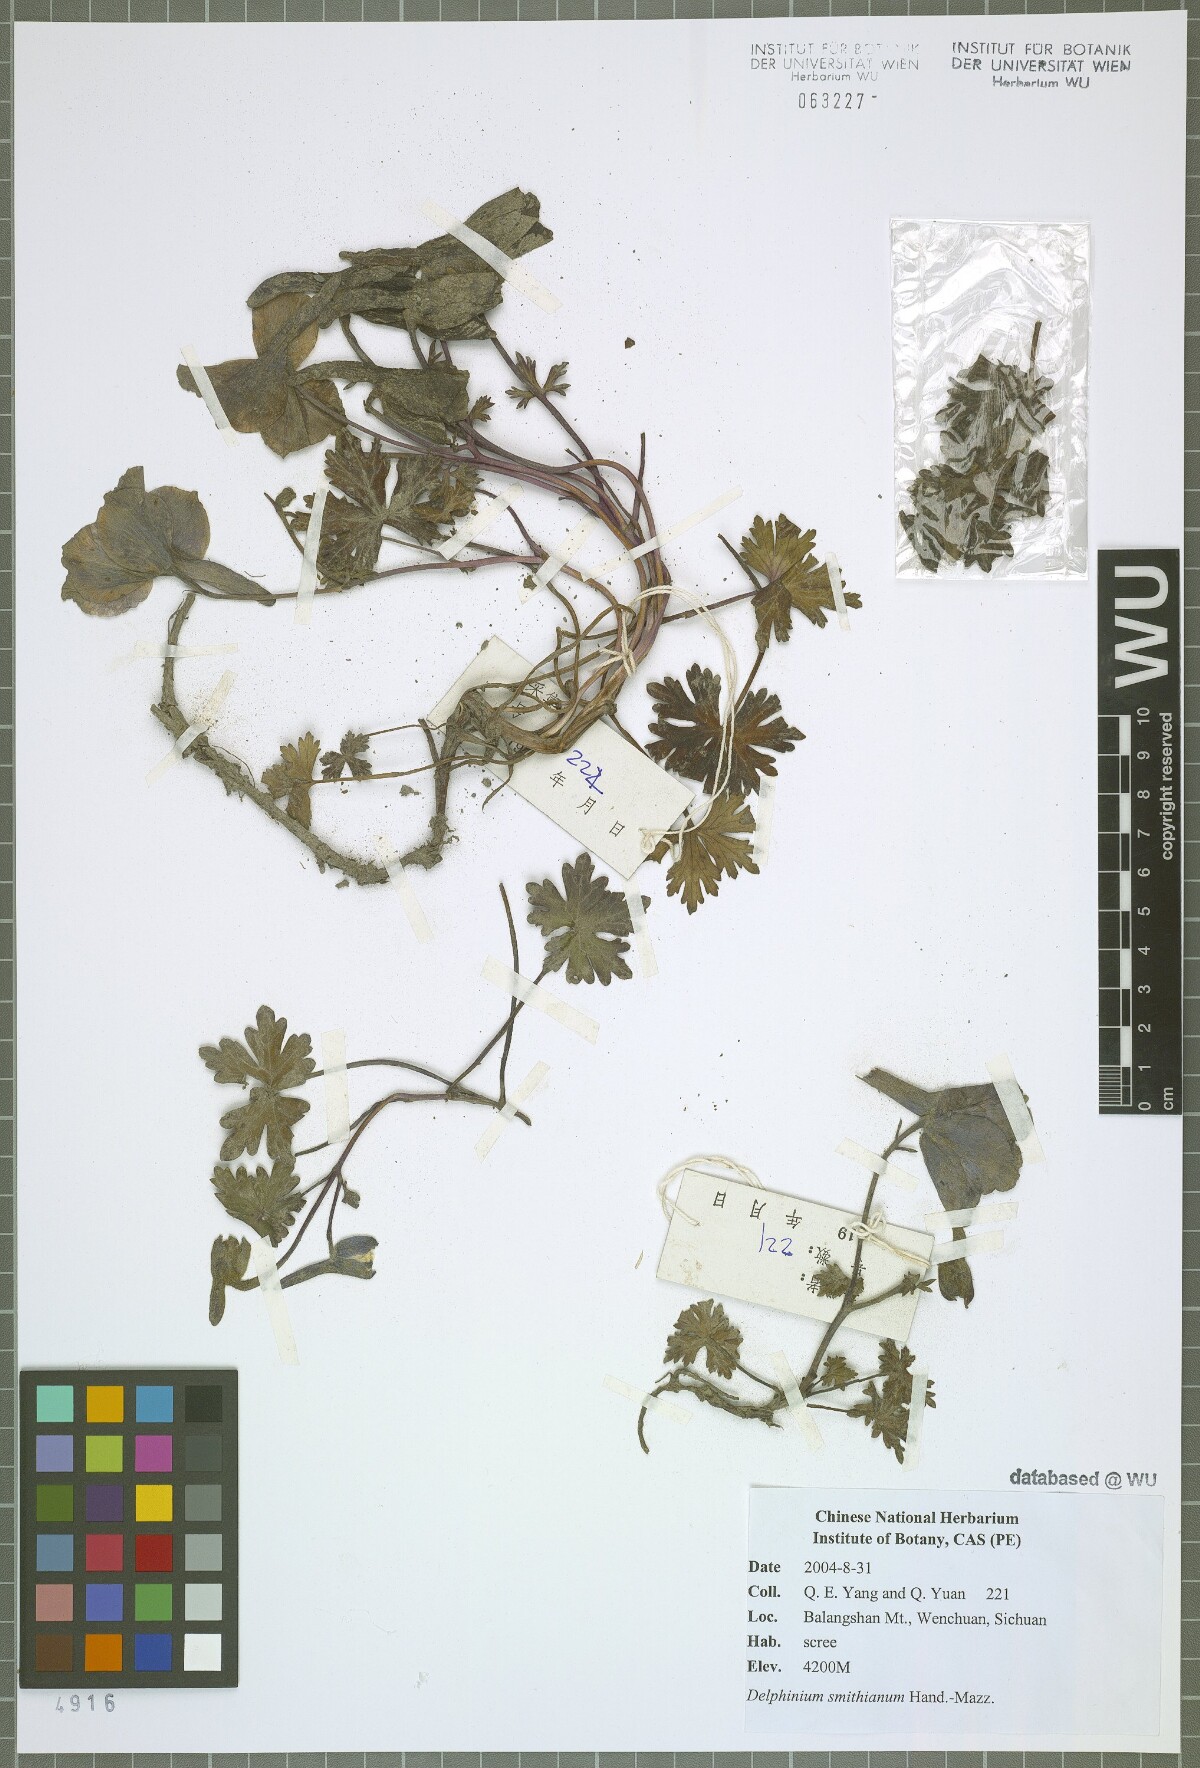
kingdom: Plantae
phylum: Tracheophyta
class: Magnoliopsida
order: Ranunculales
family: Ranunculaceae
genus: Delphinium
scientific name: Delphinium smithianum
